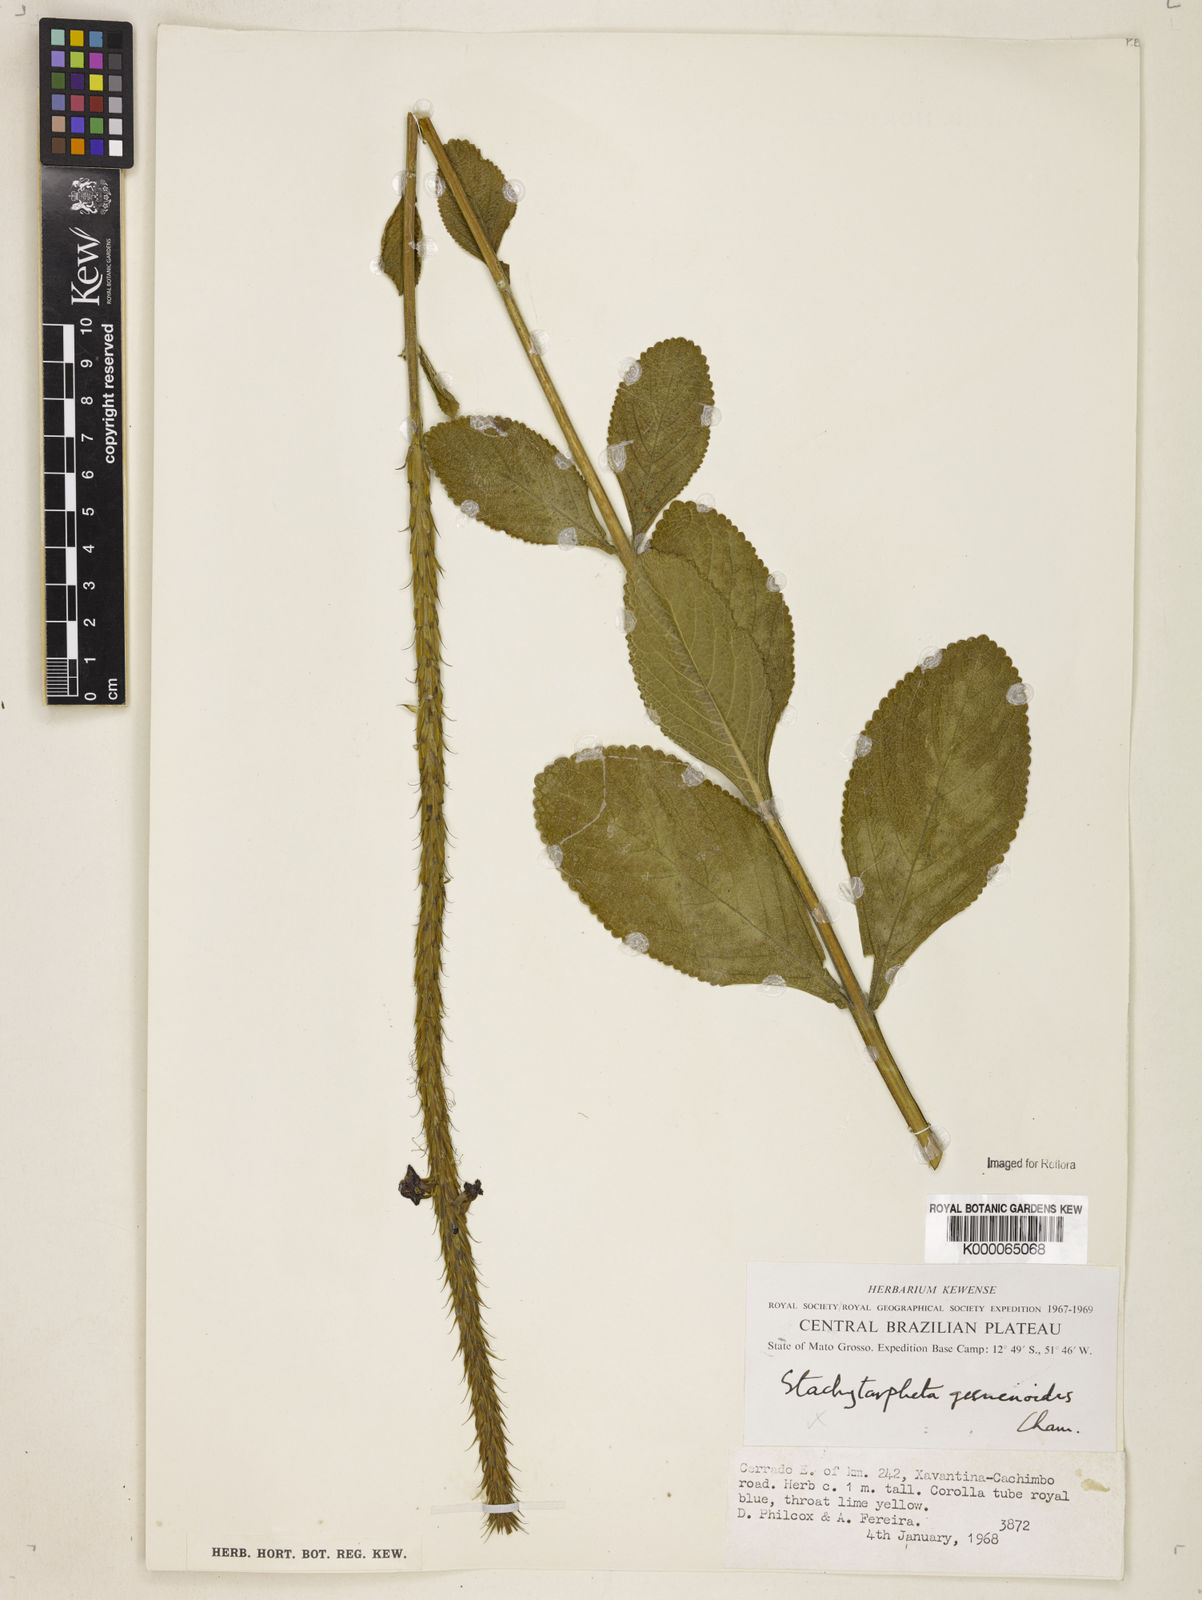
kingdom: Plantae
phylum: Tracheophyta
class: Magnoliopsida
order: Lamiales
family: Verbenaceae
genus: Stachytarpheta
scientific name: Stachytarpheta gesnerioides
